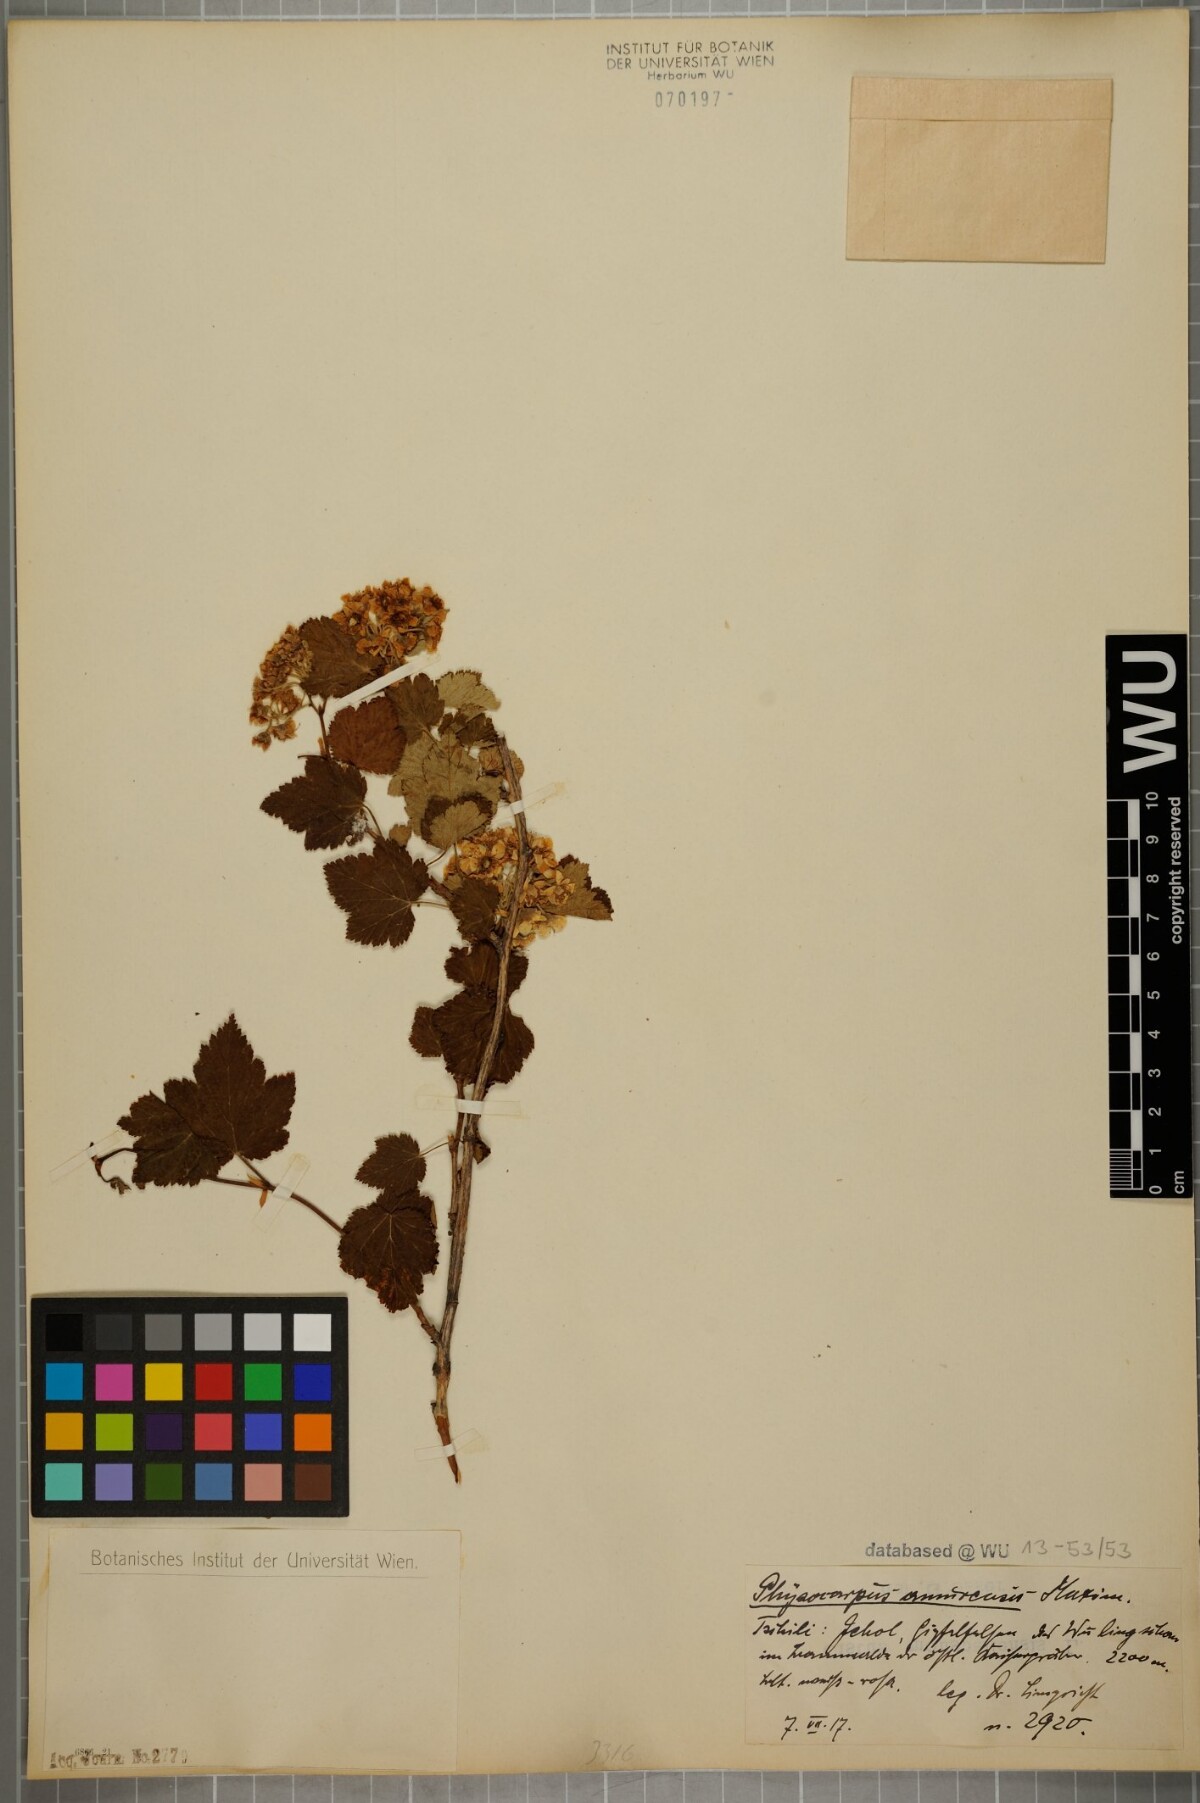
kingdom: Plantae
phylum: Tracheophyta
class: Magnoliopsida
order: Rosales
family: Rosaceae
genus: Physocarpus
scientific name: Physocarpus amurensis
